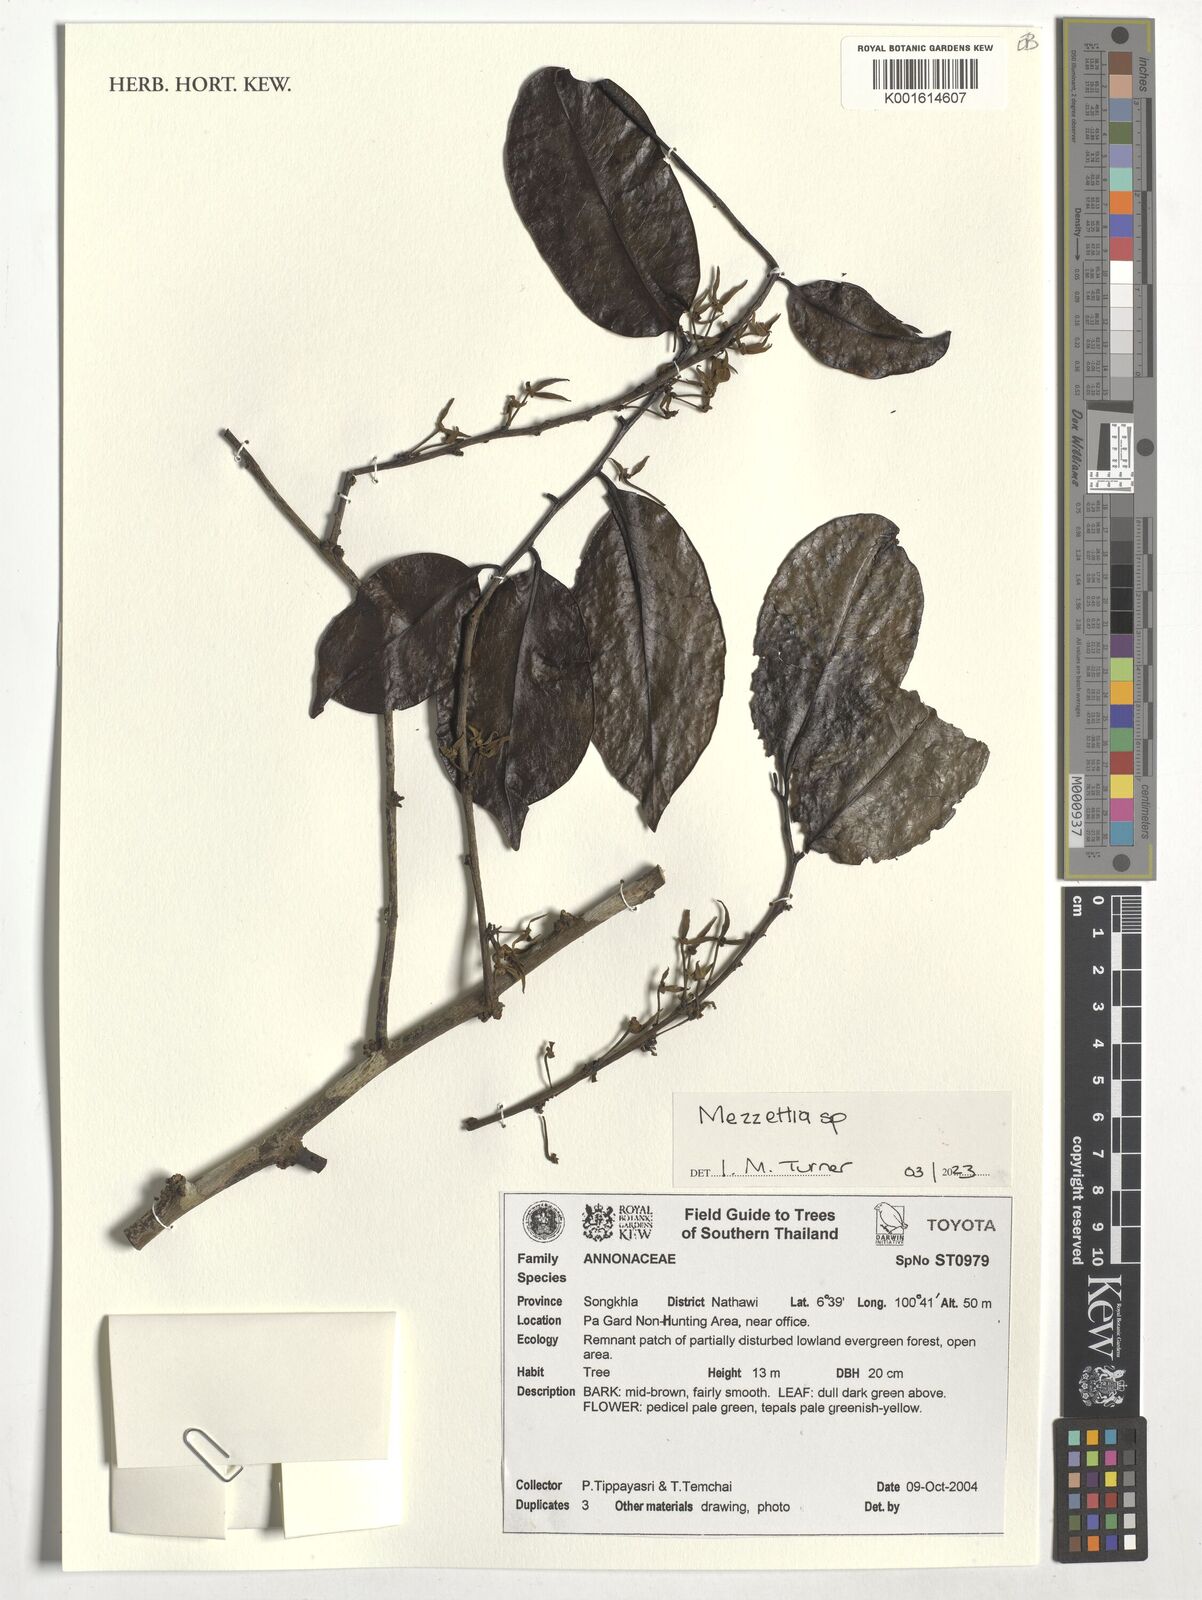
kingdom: Plantae
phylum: Tracheophyta
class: Magnoliopsida
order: Magnoliales
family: Annonaceae
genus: Mezzettia
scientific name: Mezzettia
